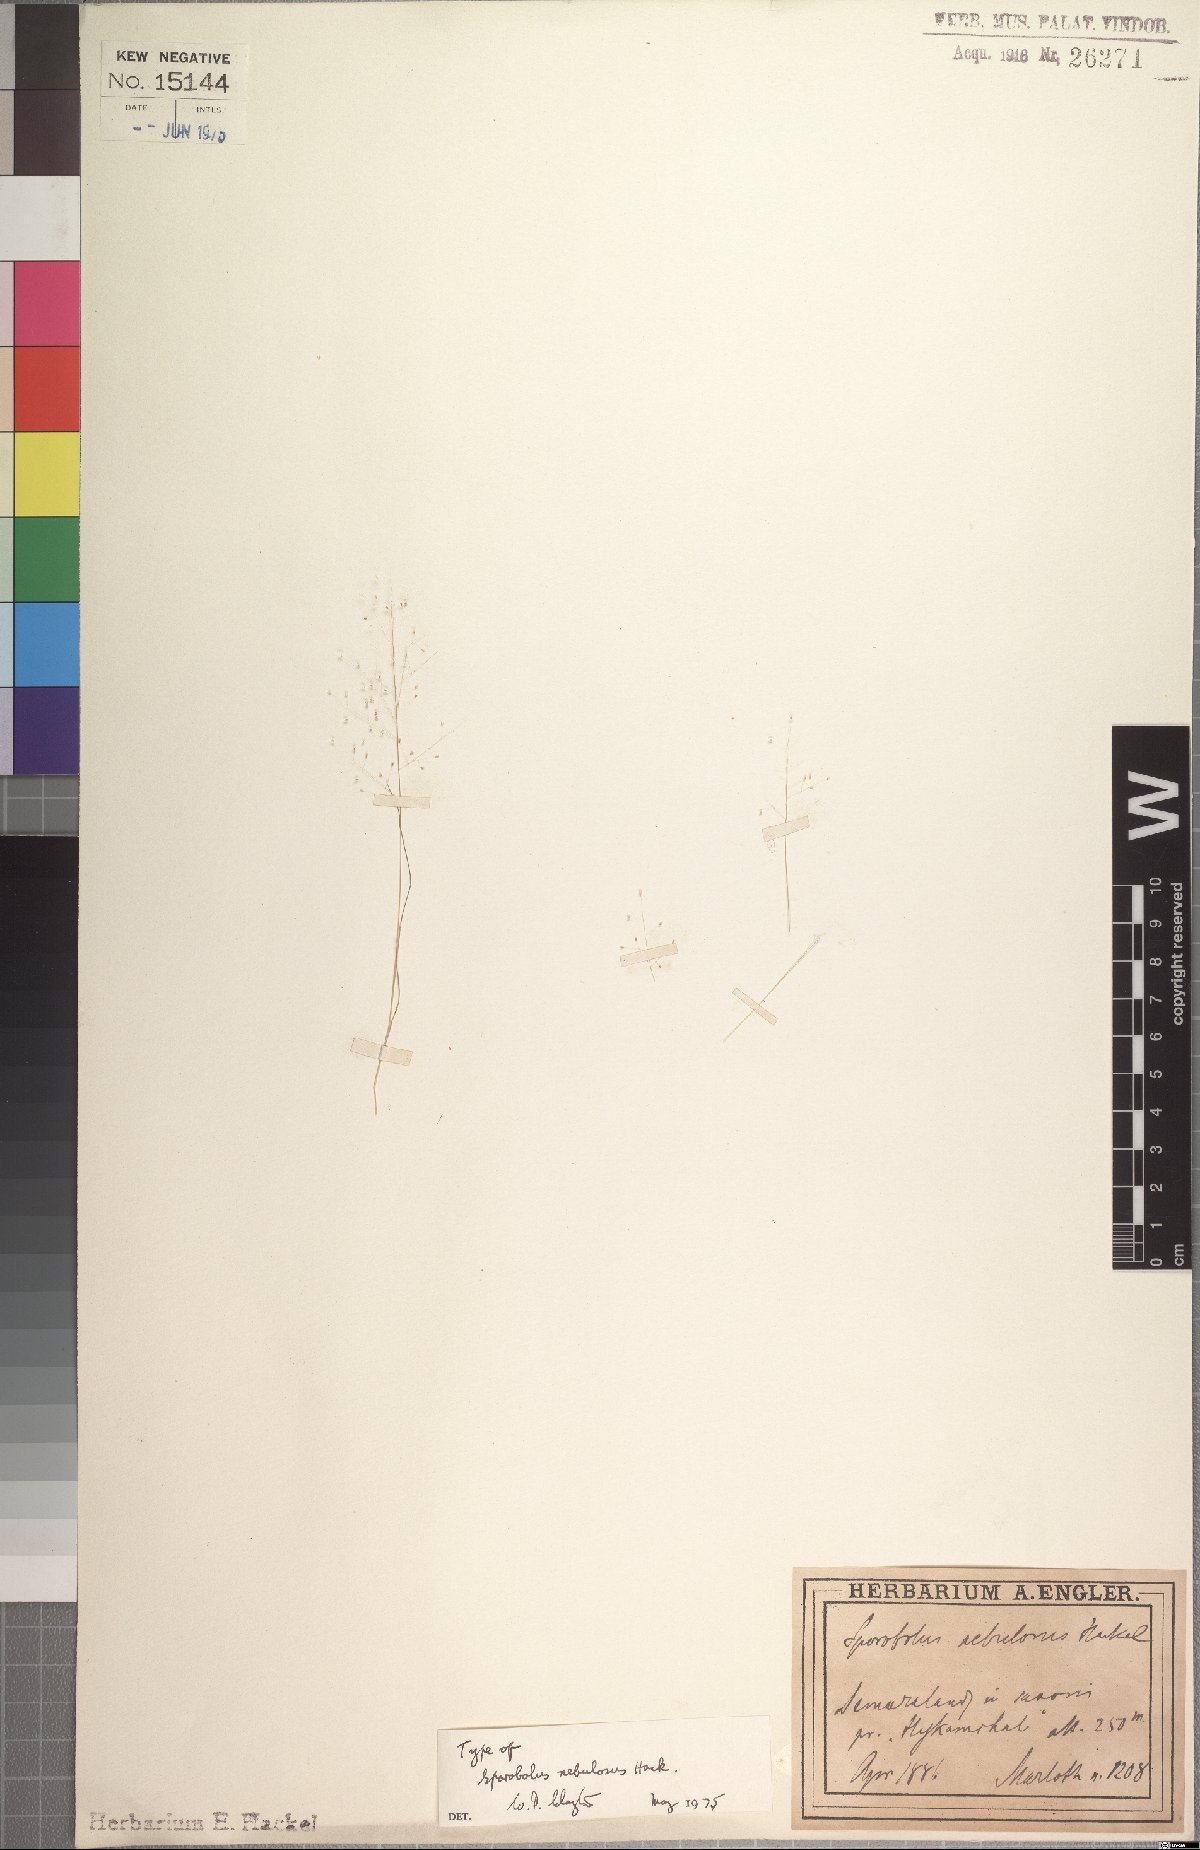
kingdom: Plantae
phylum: Tracheophyta
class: Liliopsida
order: Poales
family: Poaceae
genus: Sporobolus
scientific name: Sporobolus nebulosus
